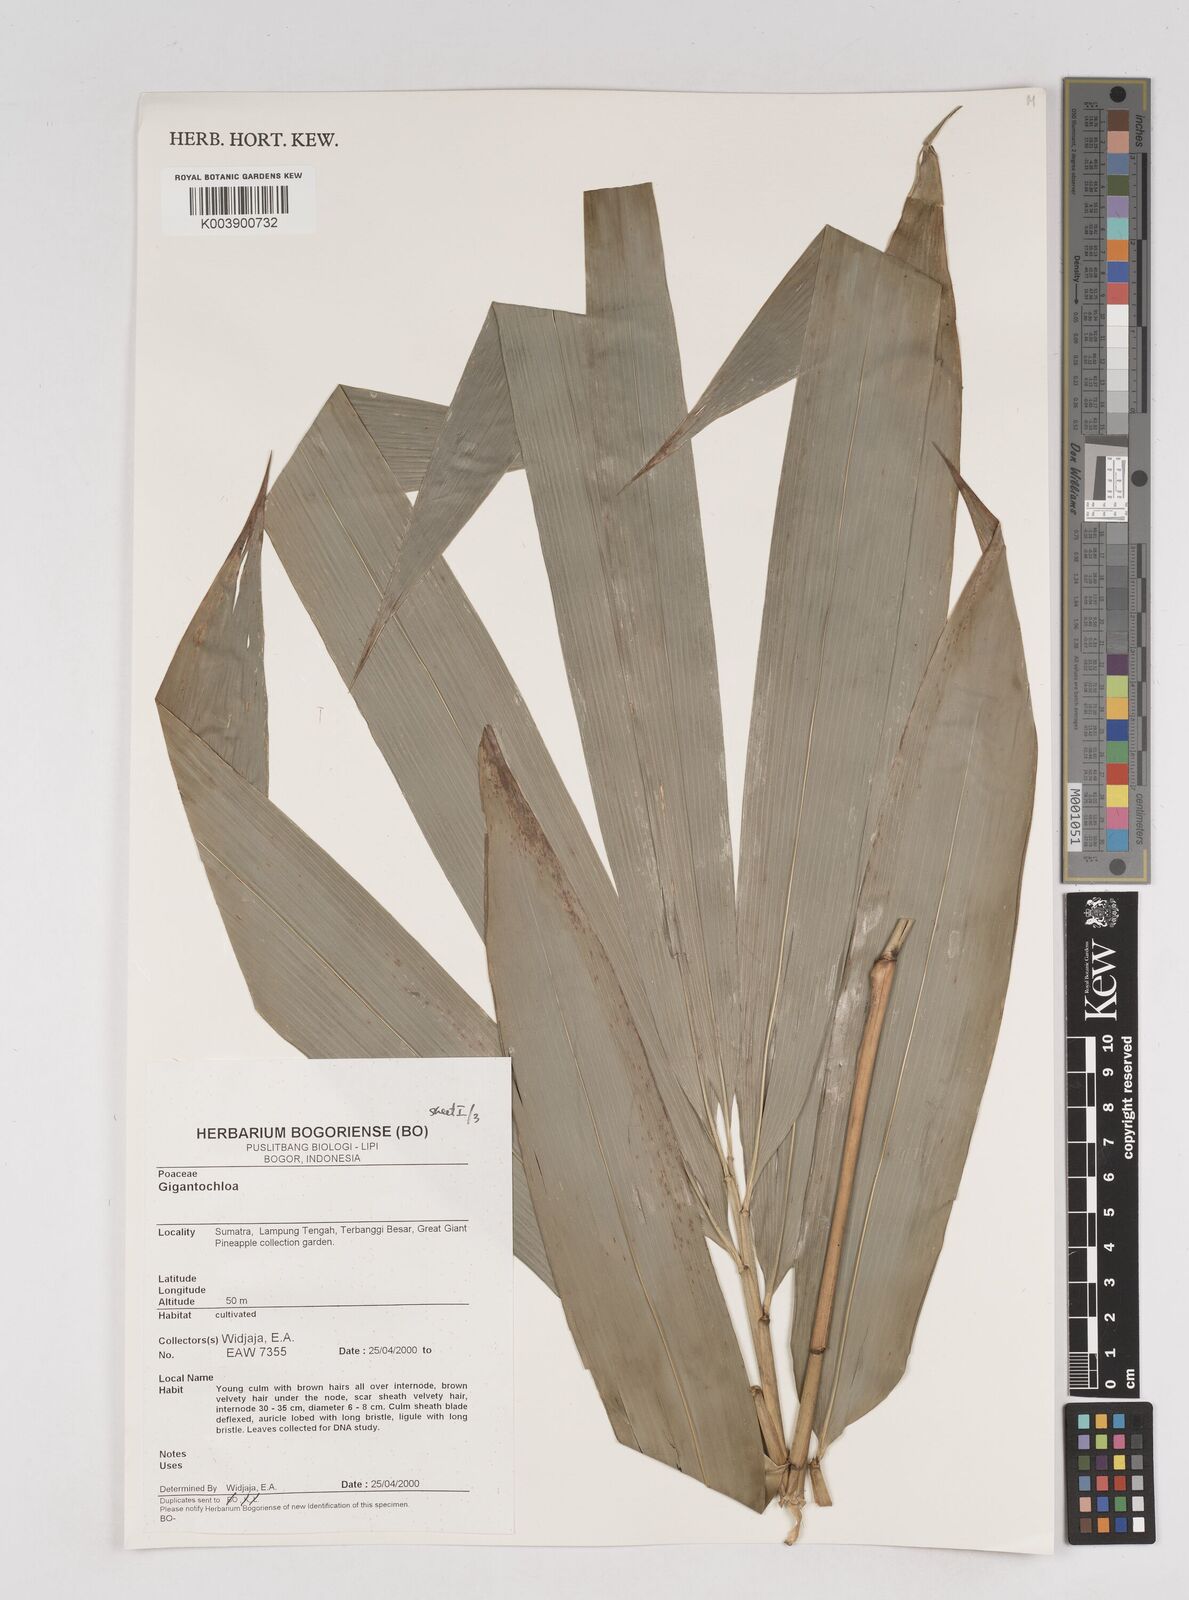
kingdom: Plantae
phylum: Tracheophyta
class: Liliopsida
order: Poales
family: Poaceae
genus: Gigantochloa
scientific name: Gigantochloa
